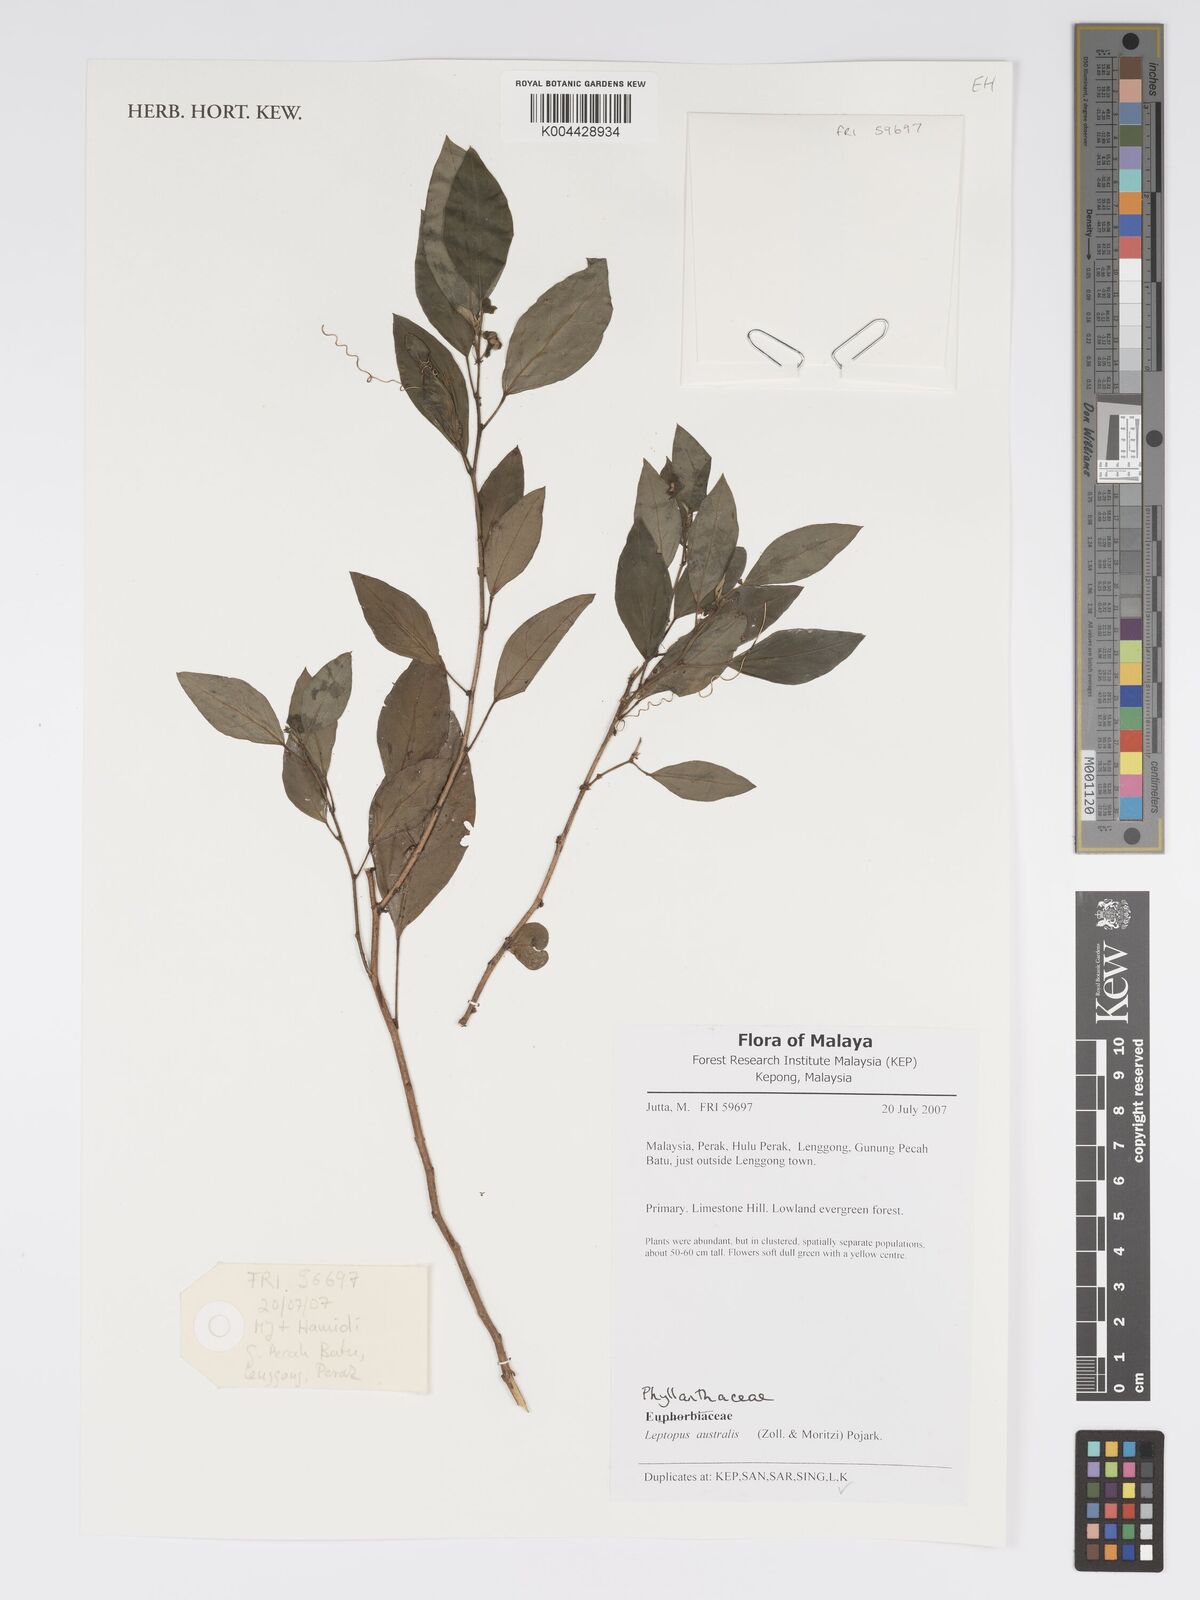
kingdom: Plantae
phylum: Tracheophyta
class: Magnoliopsida
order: Malpighiales
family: Phyllanthaceae
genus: Leptopus
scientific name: Leptopus australis
